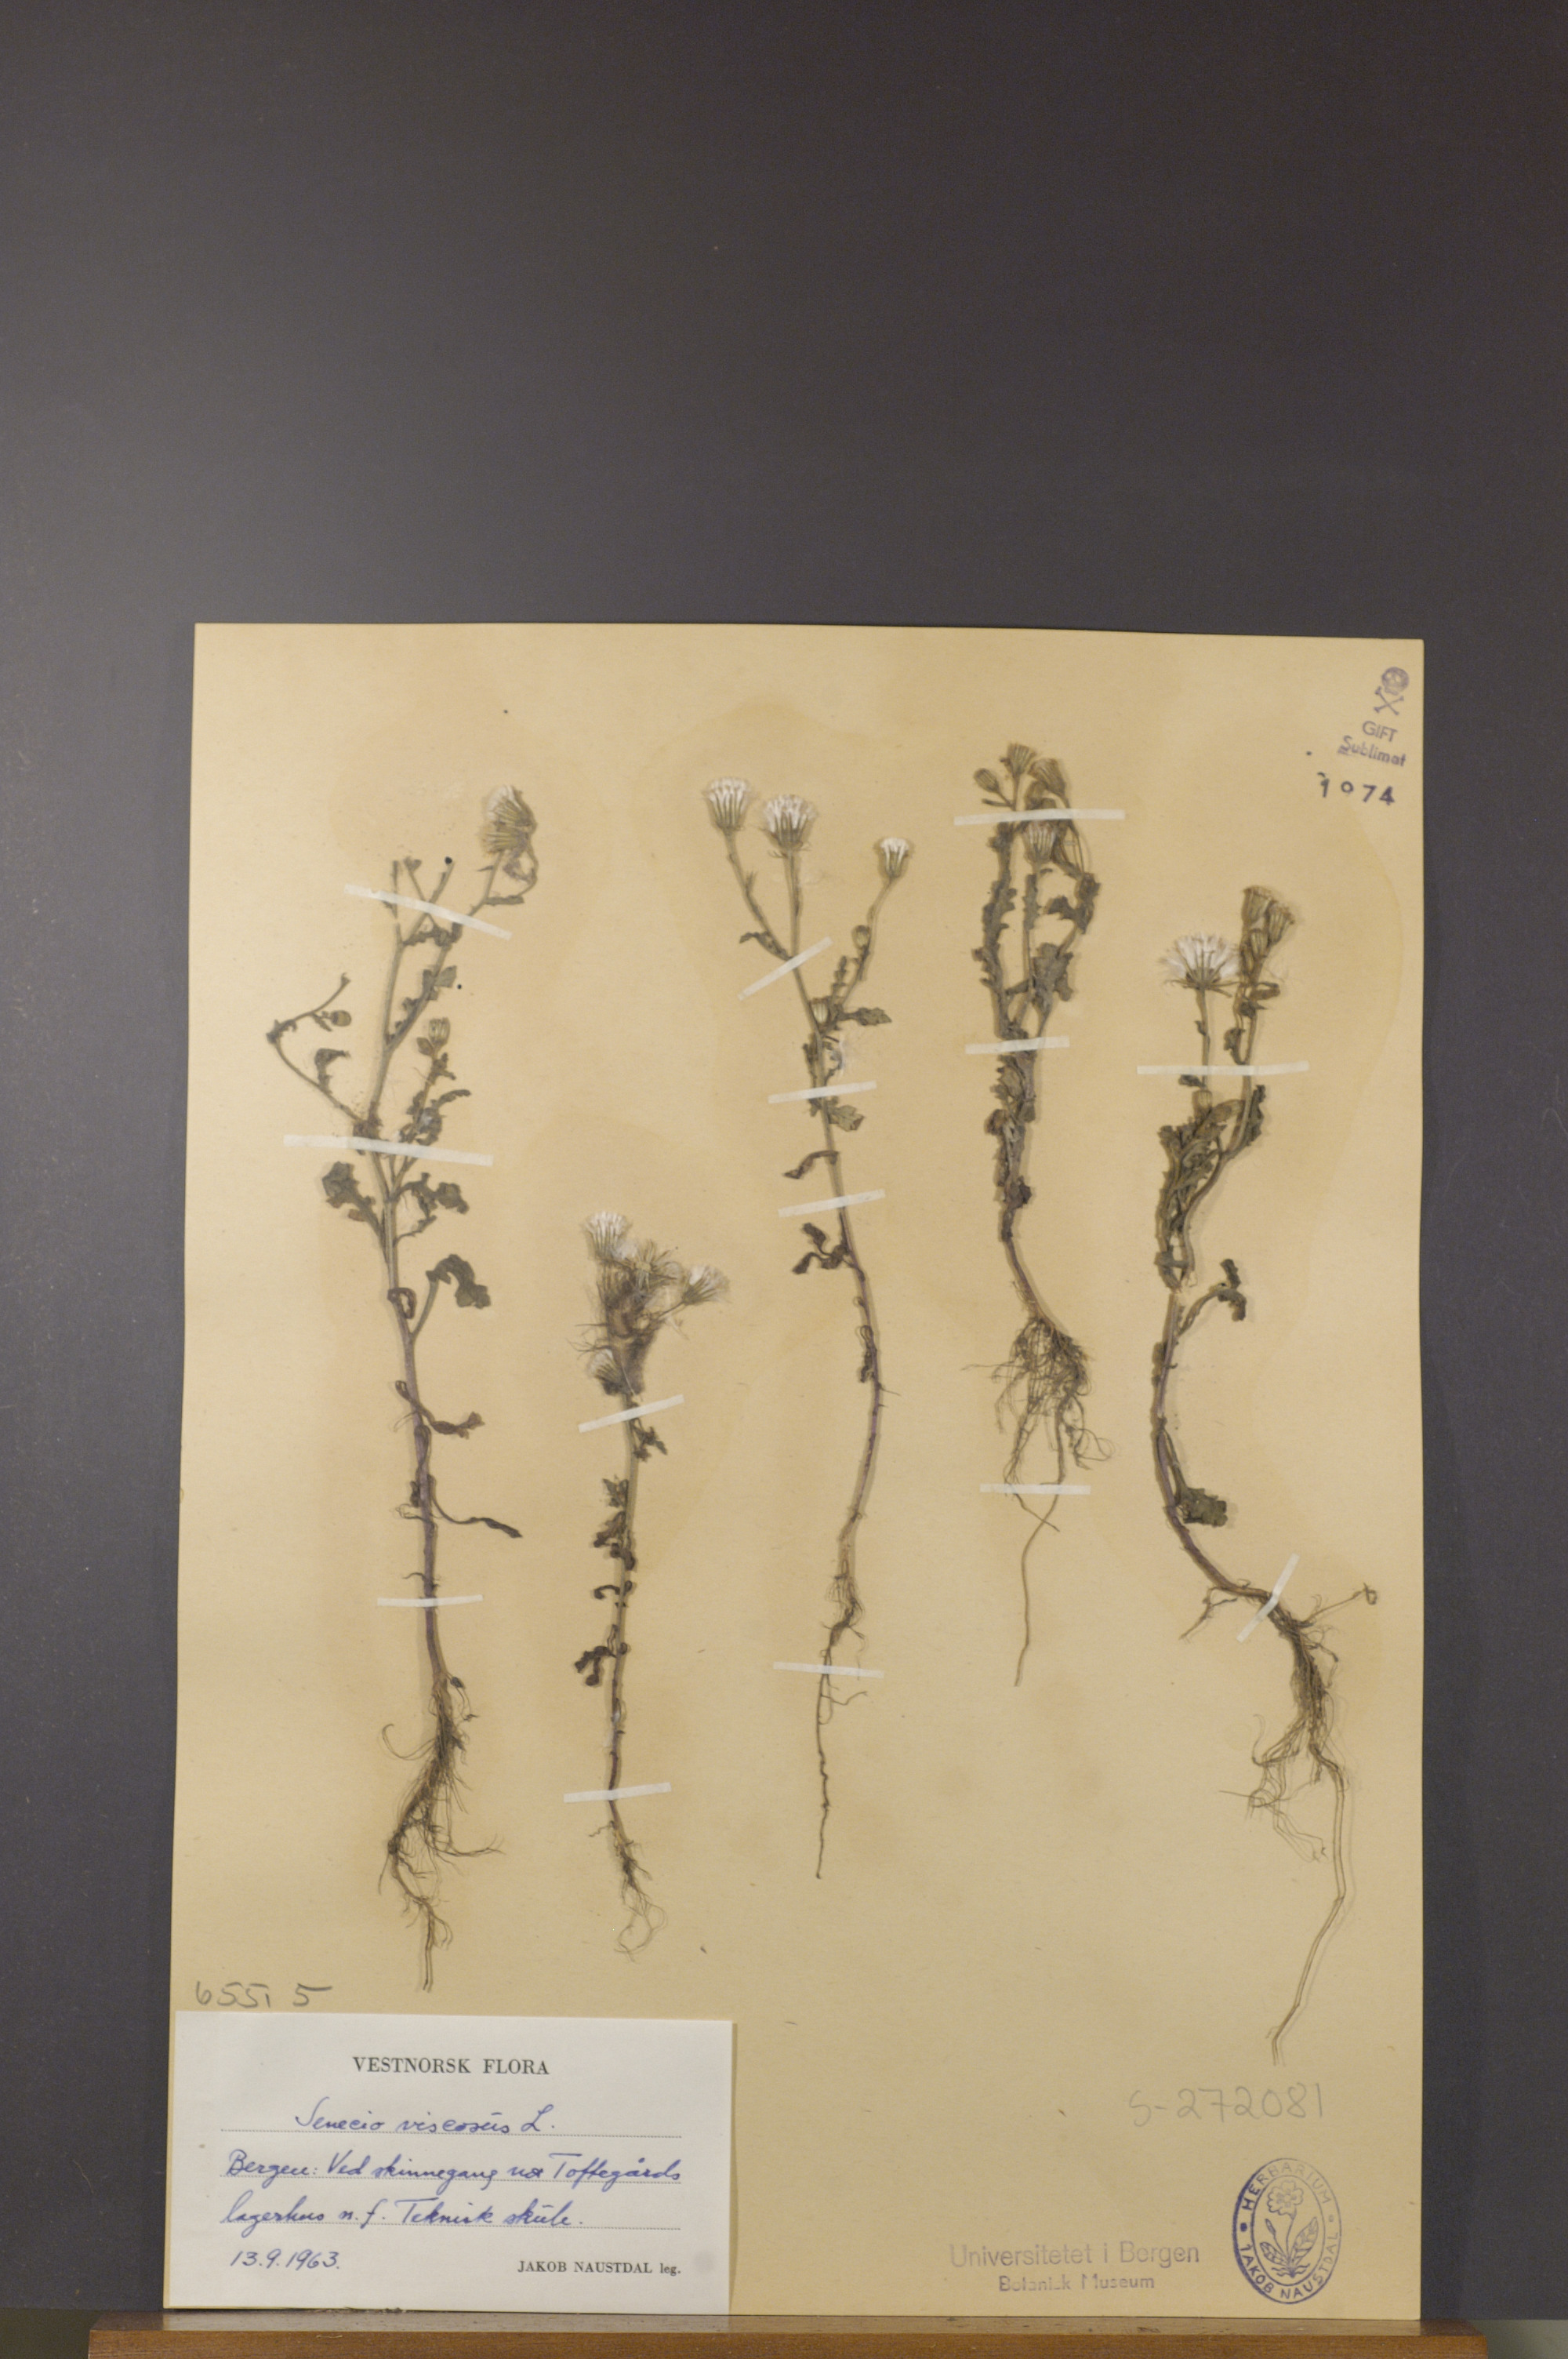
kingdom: Plantae
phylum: Tracheophyta
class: Magnoliopsida
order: Asterales
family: Asteraceae
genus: Senecio
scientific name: Senecio viscosus
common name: Sticky groundsel
